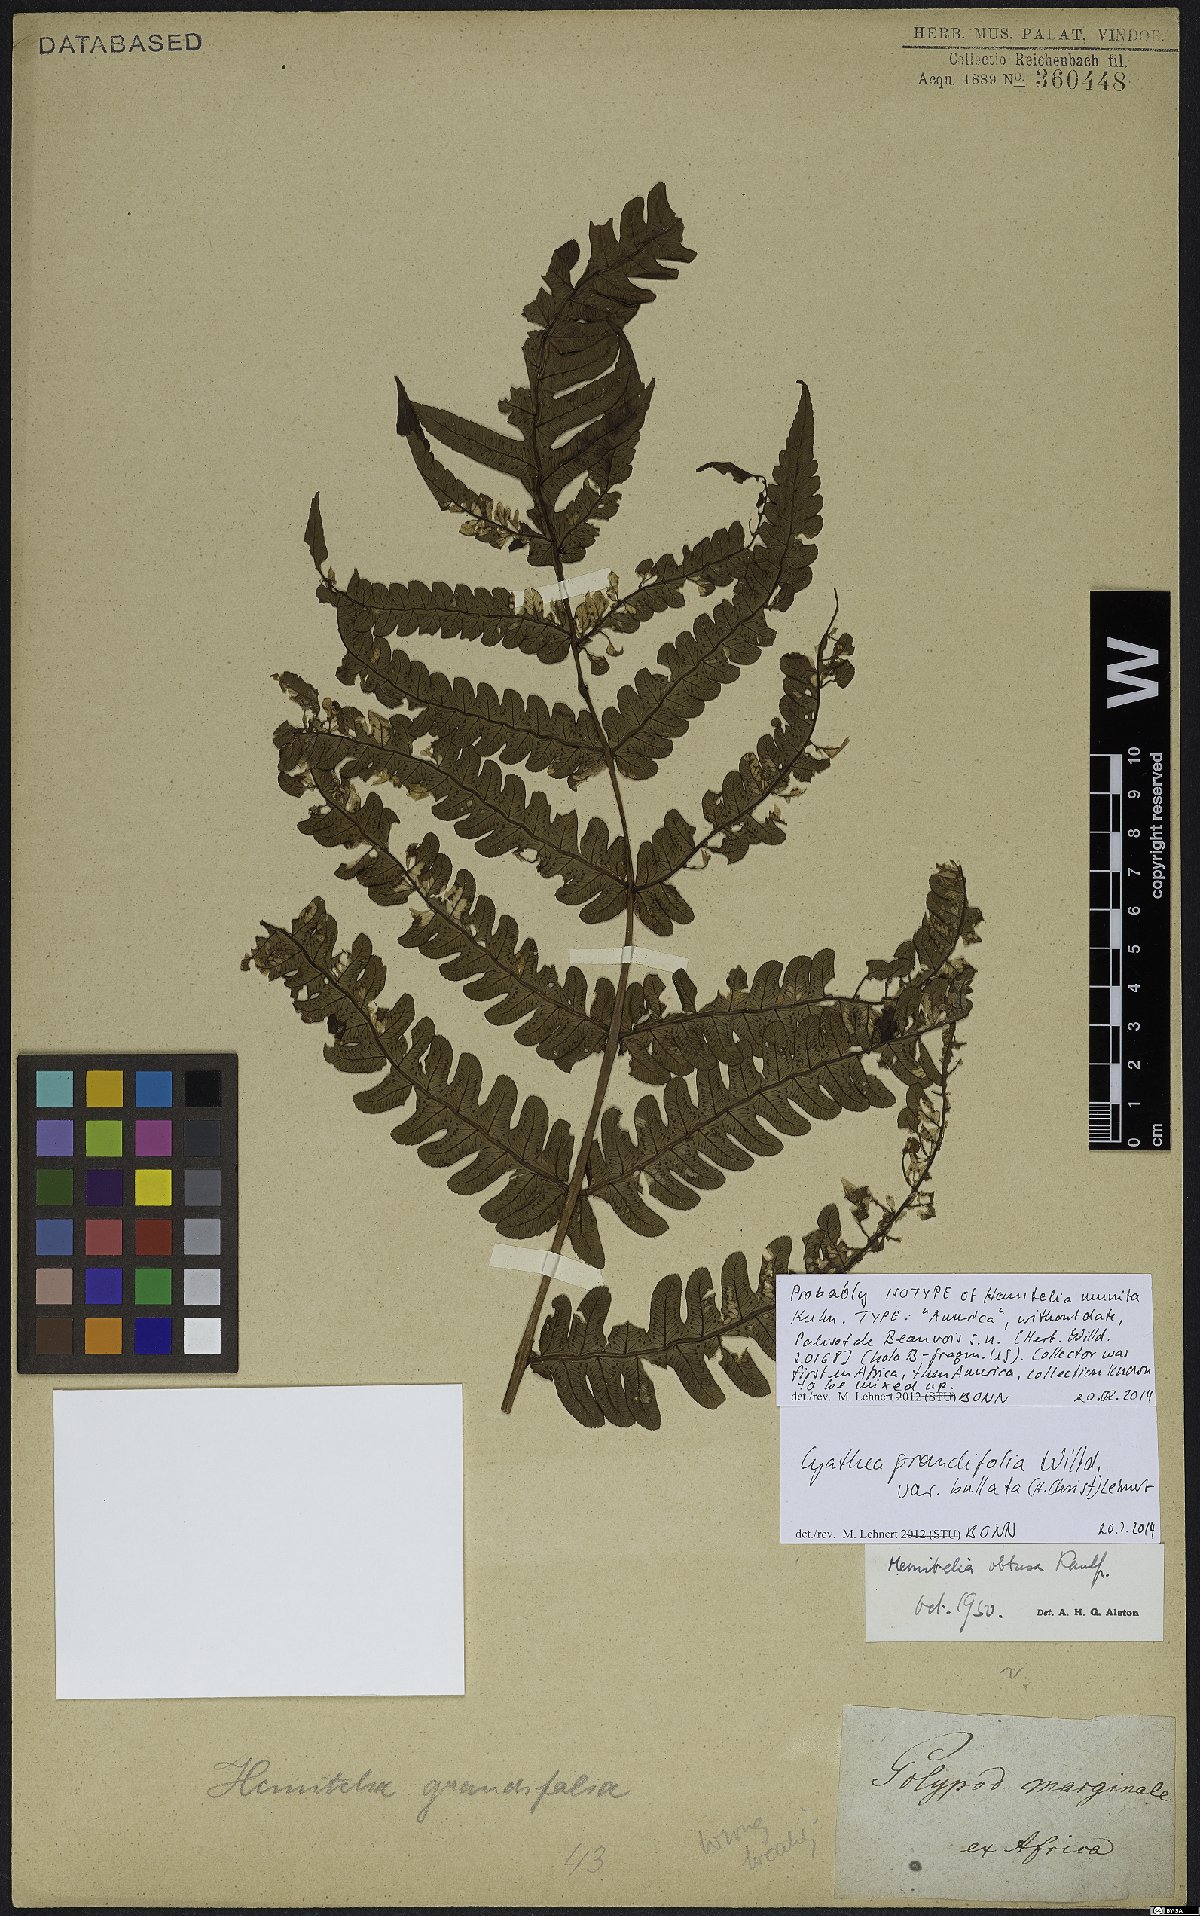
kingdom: Plantae
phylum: Tracheophyta
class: Polypodiopsida
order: Cyatheales
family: Cyatheaceae
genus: Cyathea
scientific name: Cyathea grandifolia
